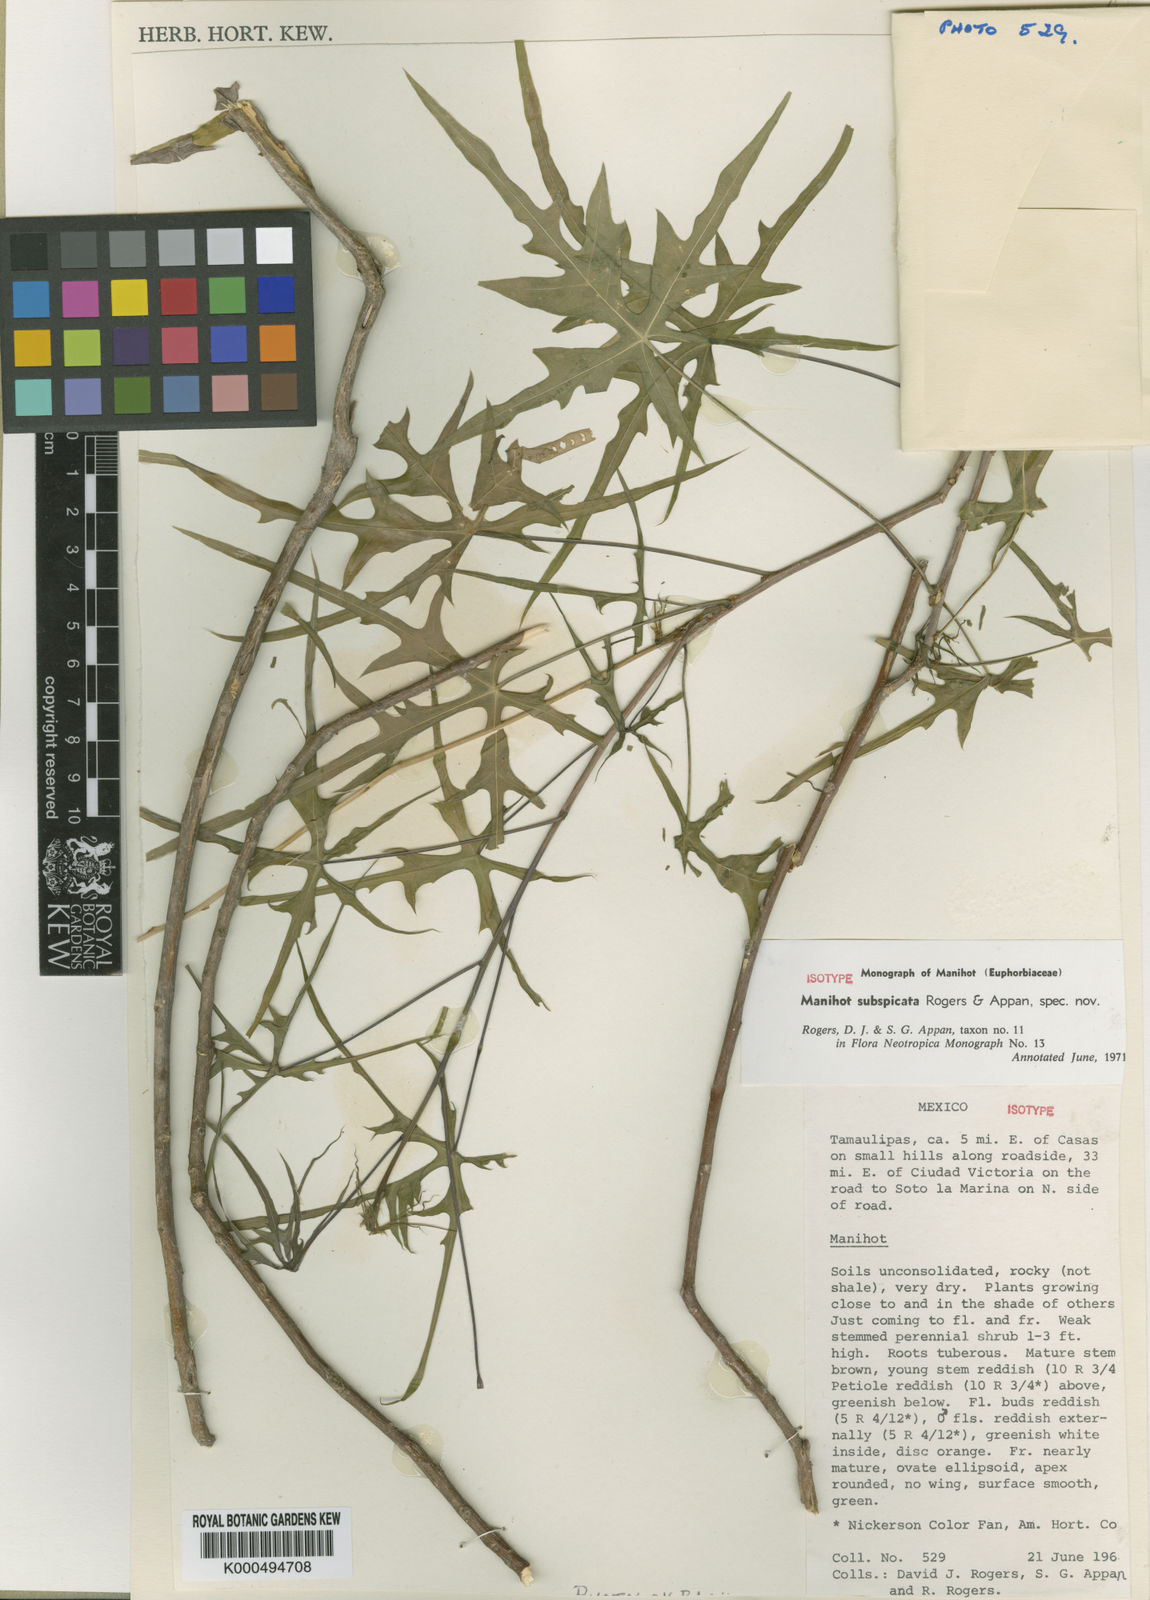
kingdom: Plantae
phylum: Tracheophyta
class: Magnoliopsida
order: Malpighiales
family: Euphorbiaceae
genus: Manihot
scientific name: Manihot subspicata
